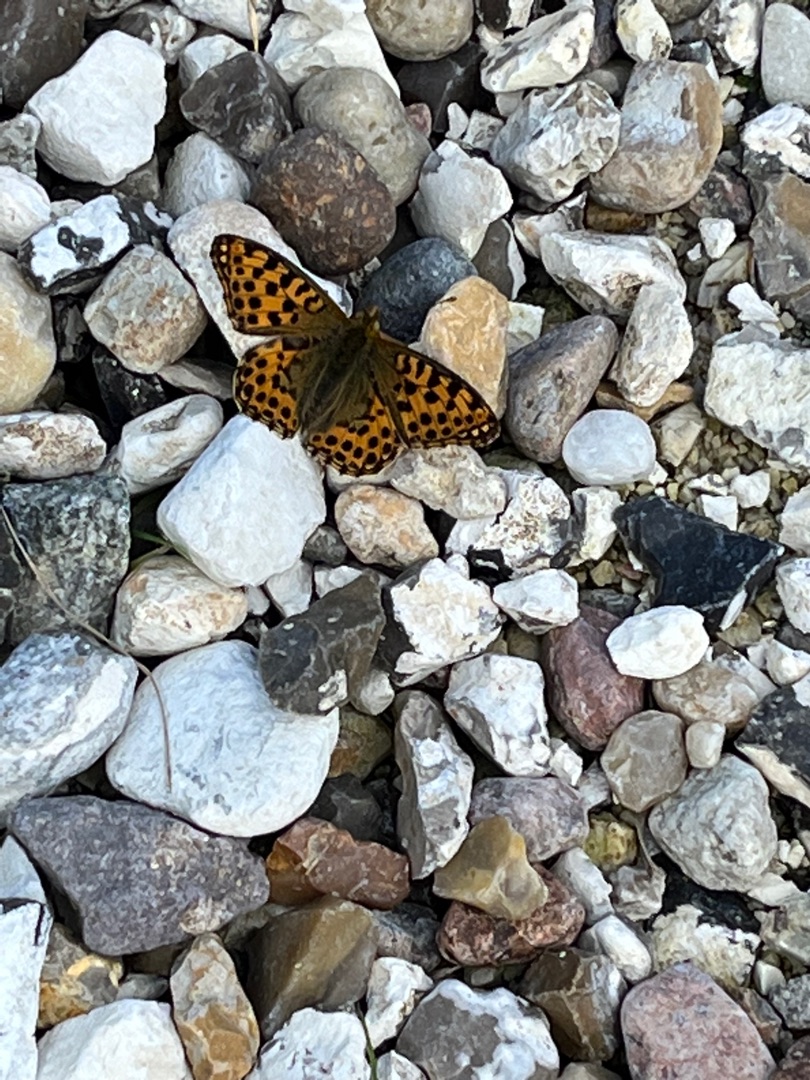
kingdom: Animalia
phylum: Arthropoda
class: Insecta
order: Lepidoptera
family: Nymphalidae
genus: Issoria
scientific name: Issoria lathonia
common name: Storplettet perlemorsommerfugl
